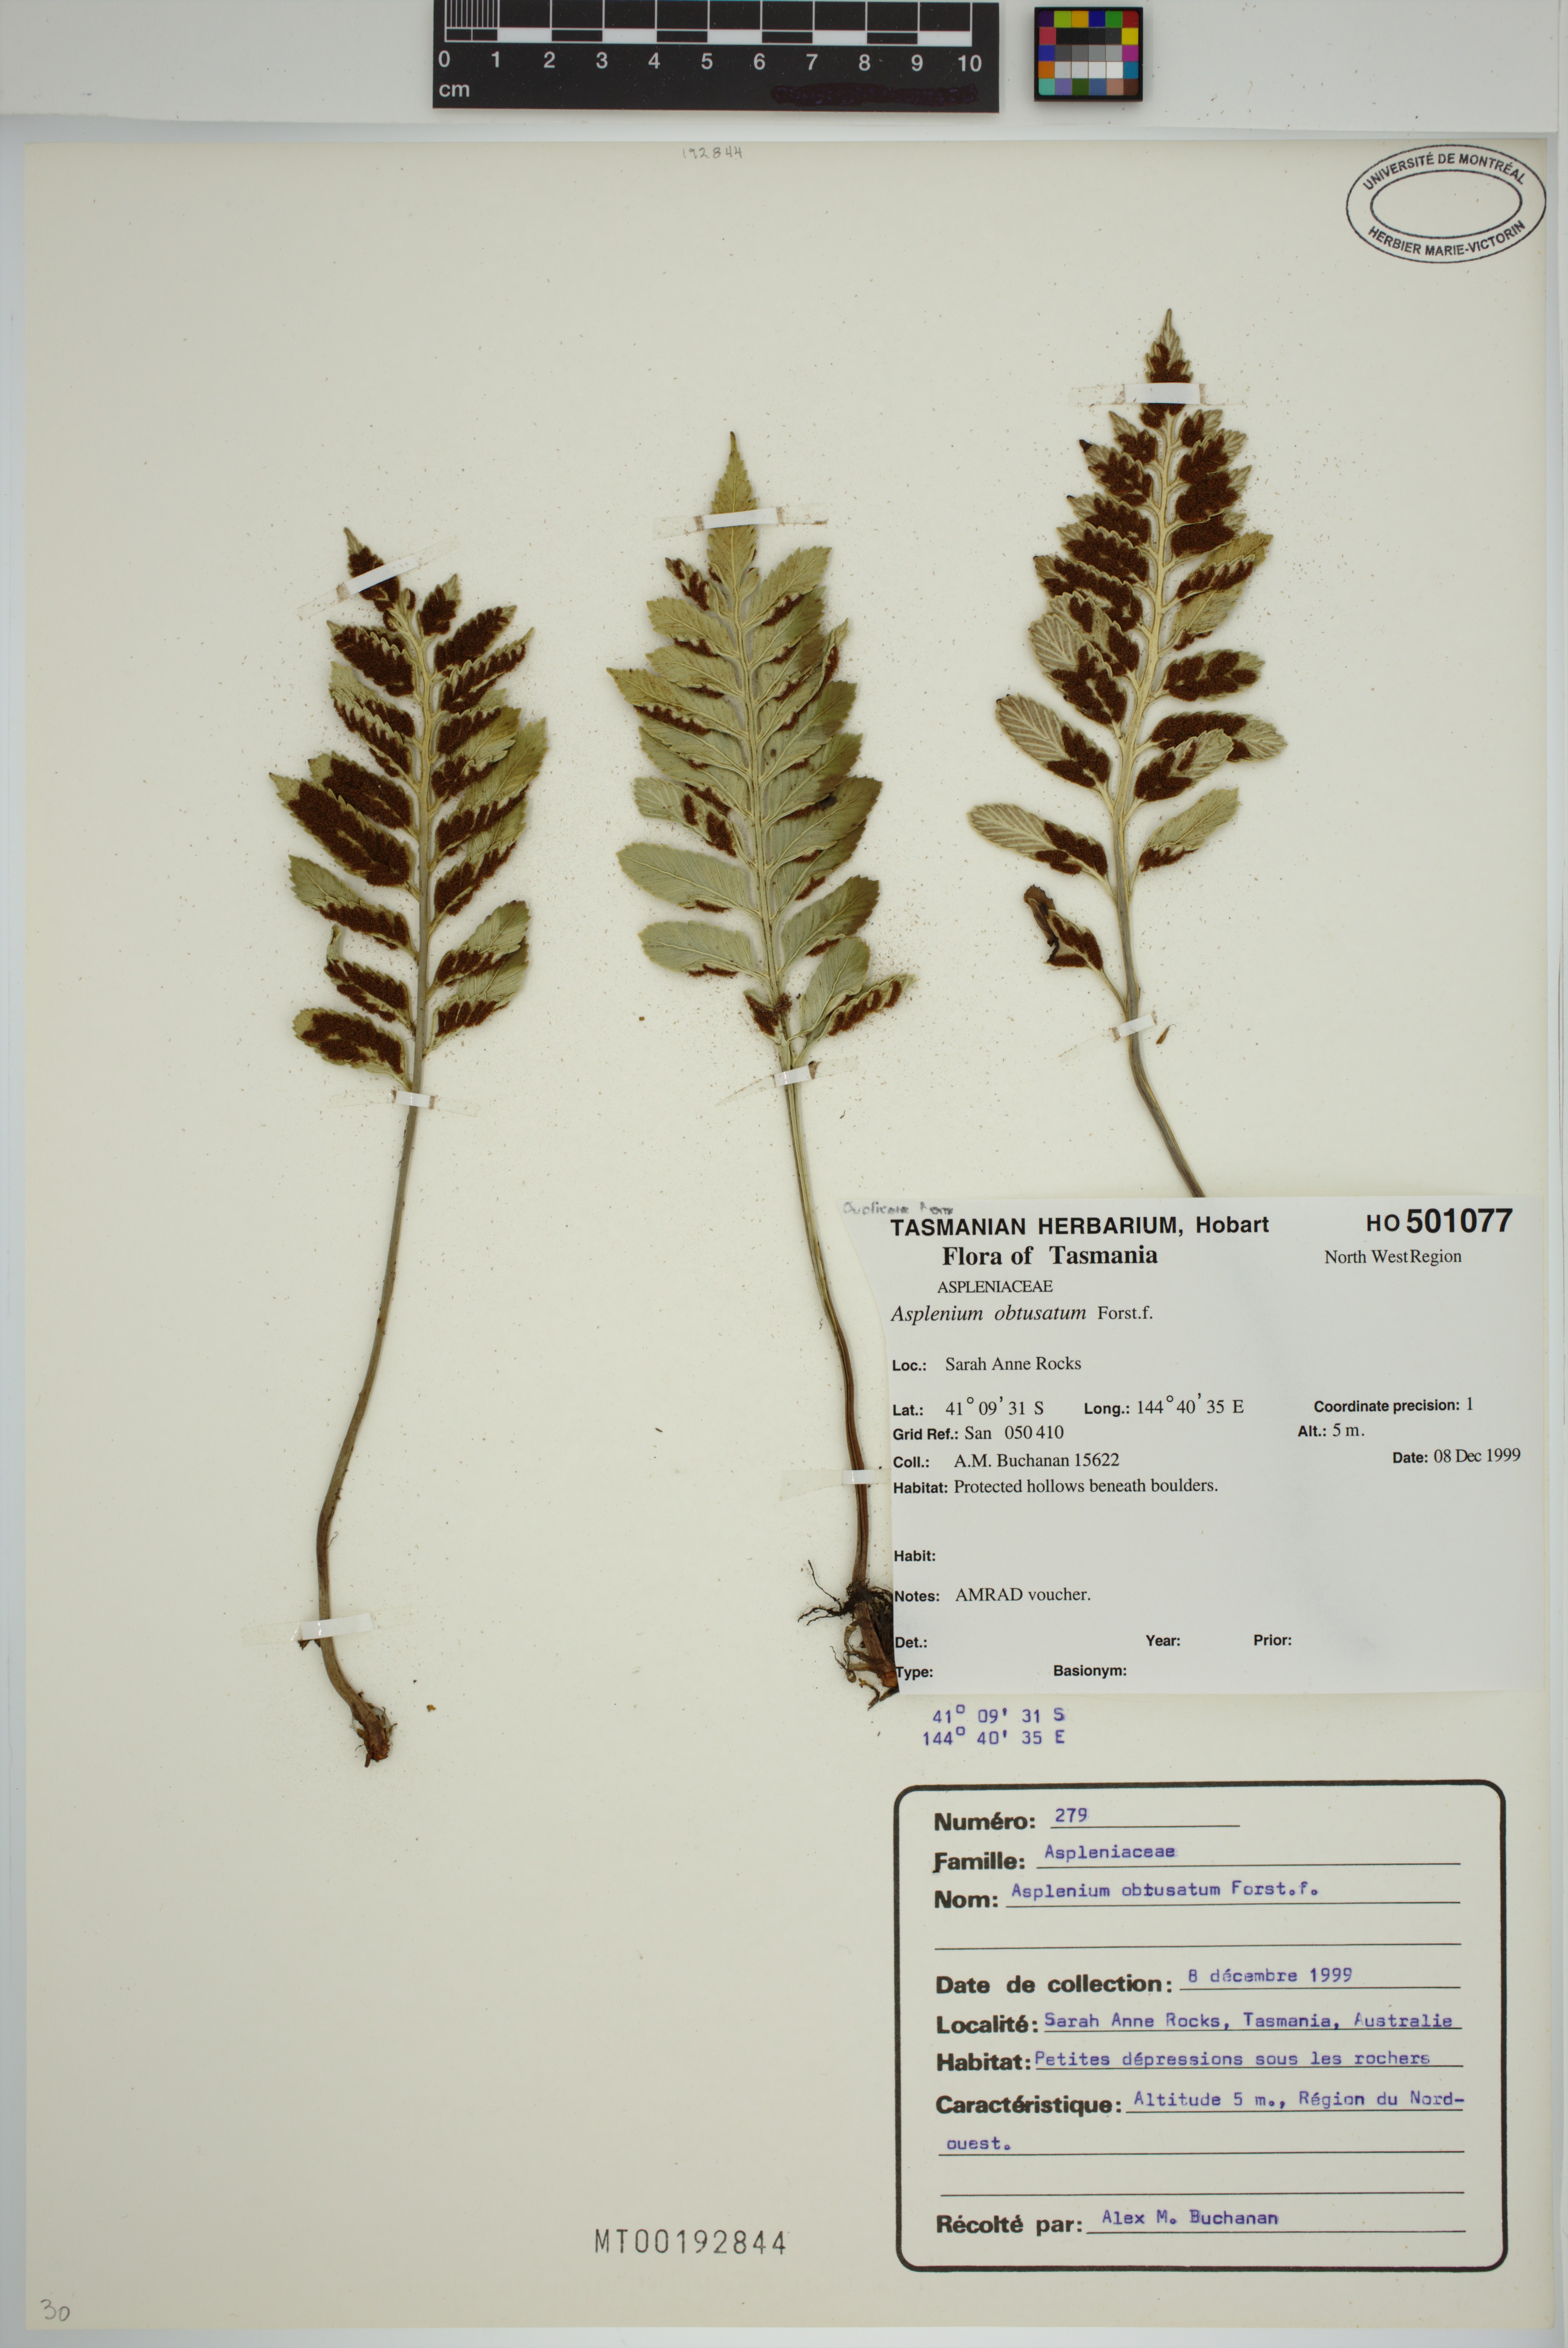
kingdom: Plantae
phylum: Tracheophyta
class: Polypodiopsida
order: Polypodiales
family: Aspleniaceae
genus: Asplenium
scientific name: Asplenium obtusatum
